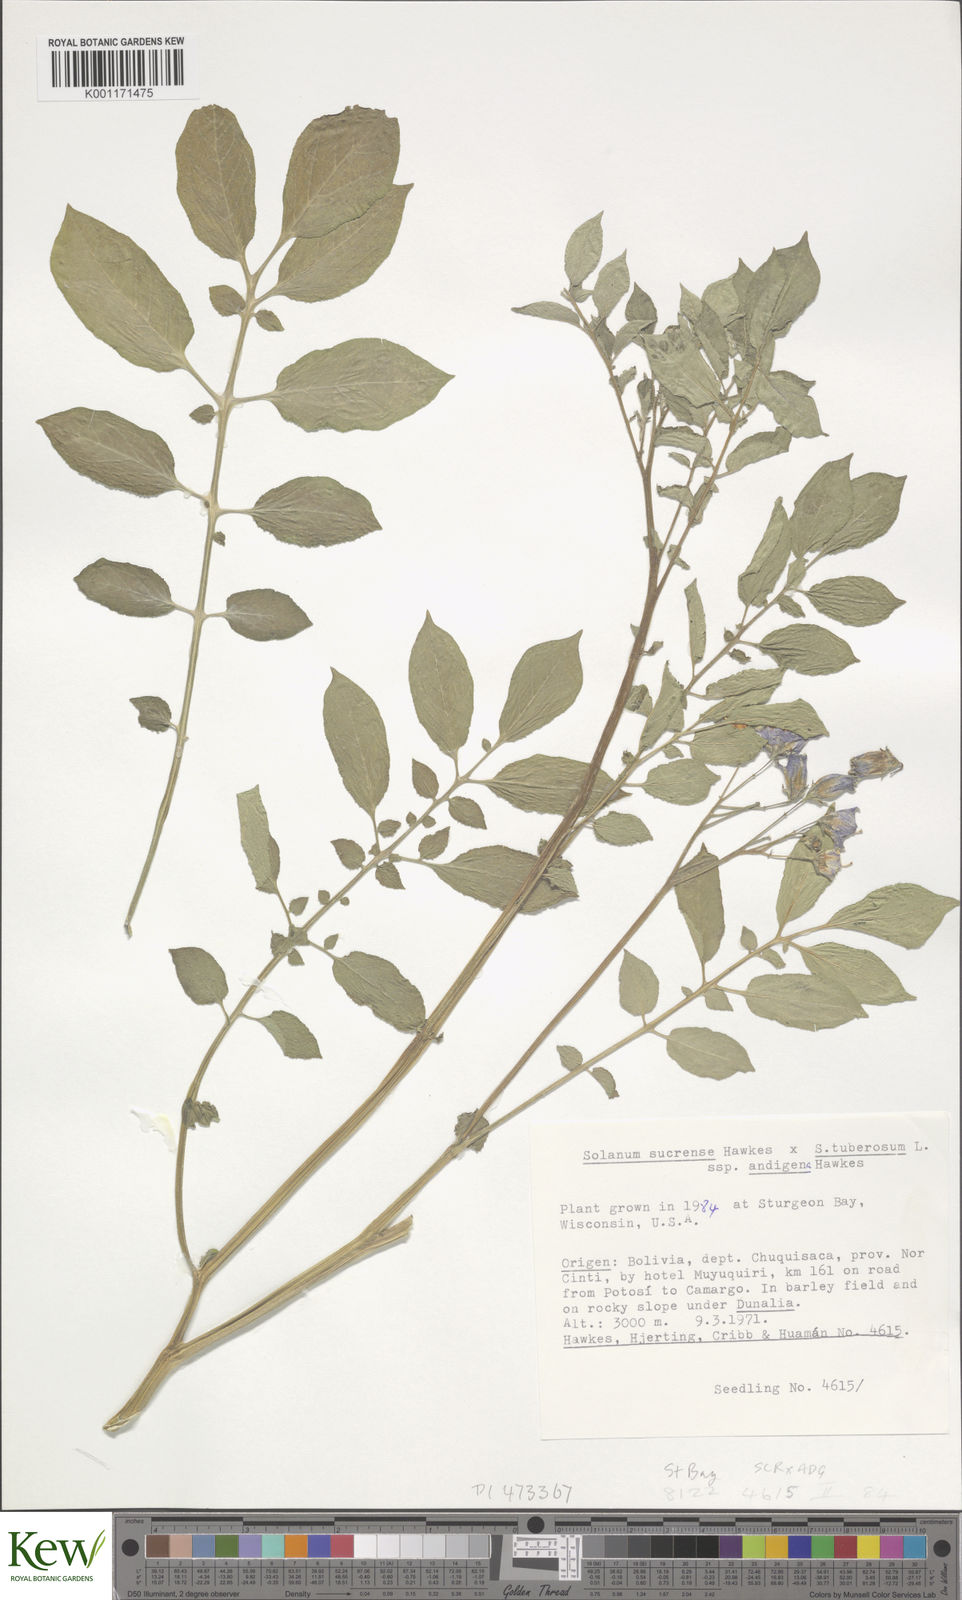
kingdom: Plantae
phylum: Tracheophyta
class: Magnoliopsida
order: Solanales
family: Solanaceae
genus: Solanum
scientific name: Solanum tuberosum
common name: Potato
